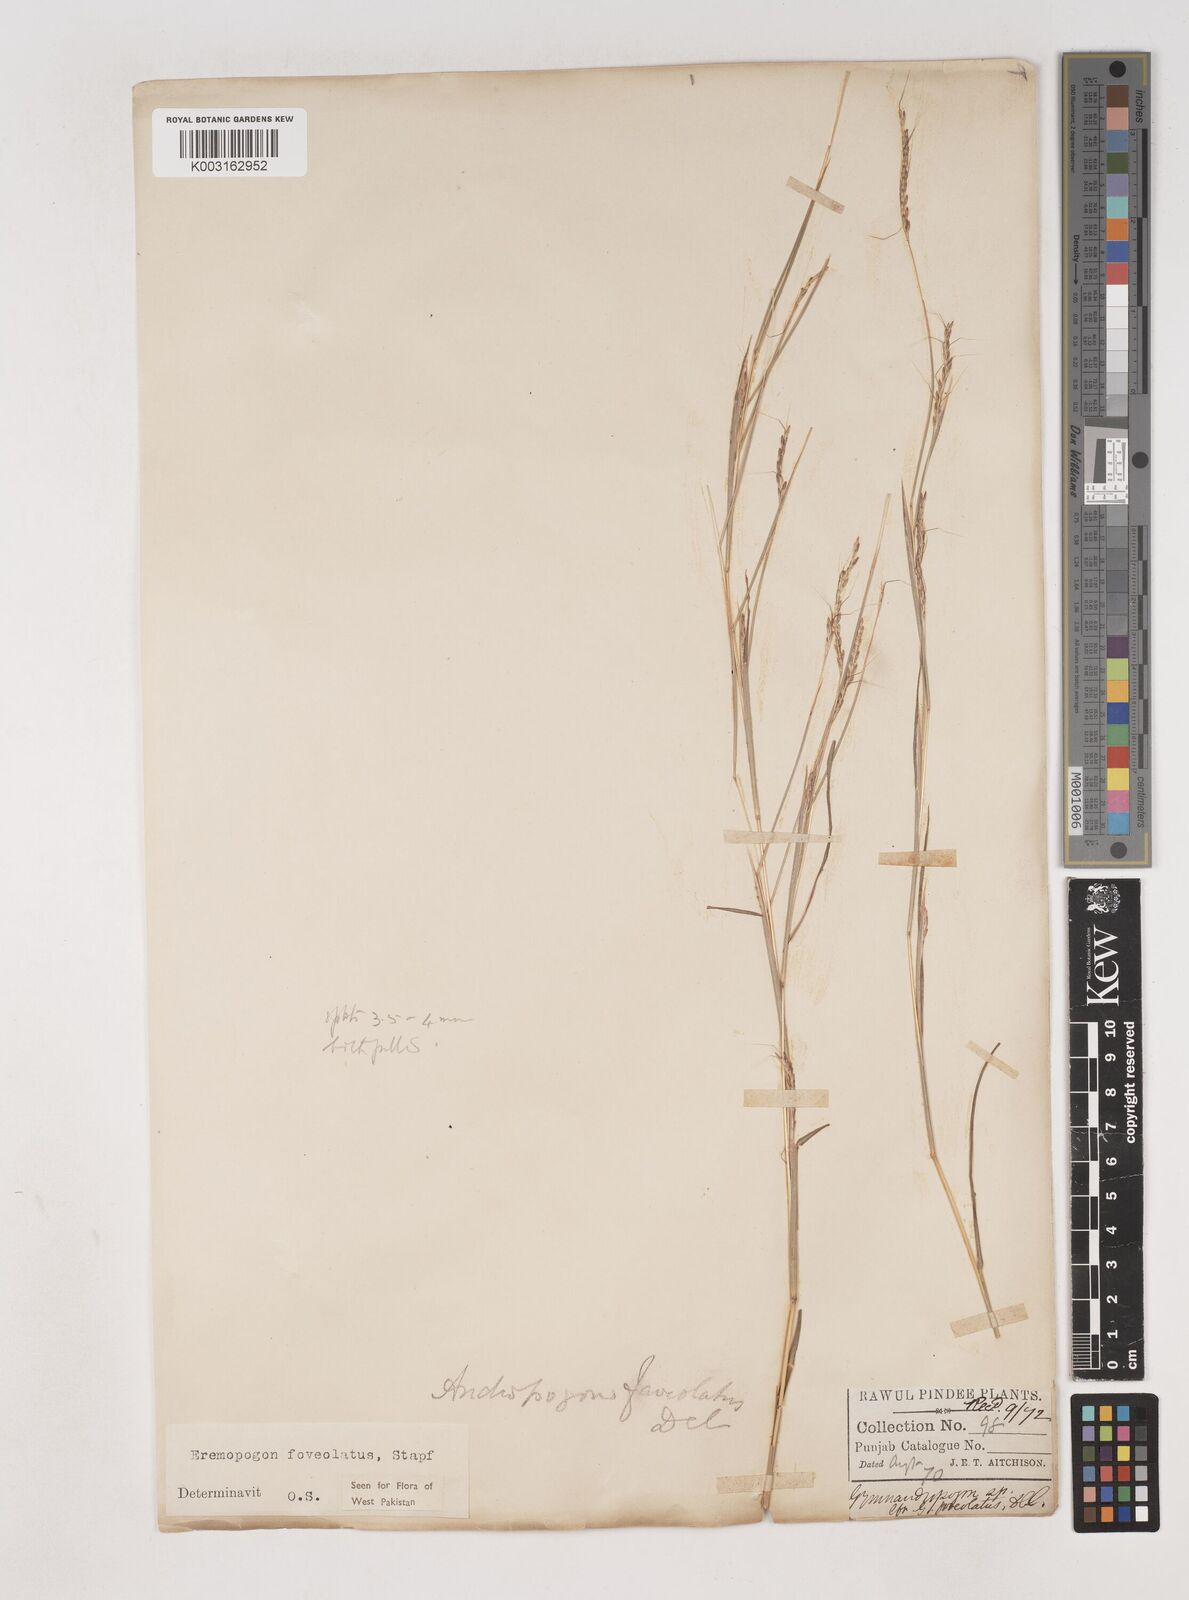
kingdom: Plantae
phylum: Tracheophyta
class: Liliopsida
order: Poales
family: Poaceae
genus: Dichanthium
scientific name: Dichanthium
